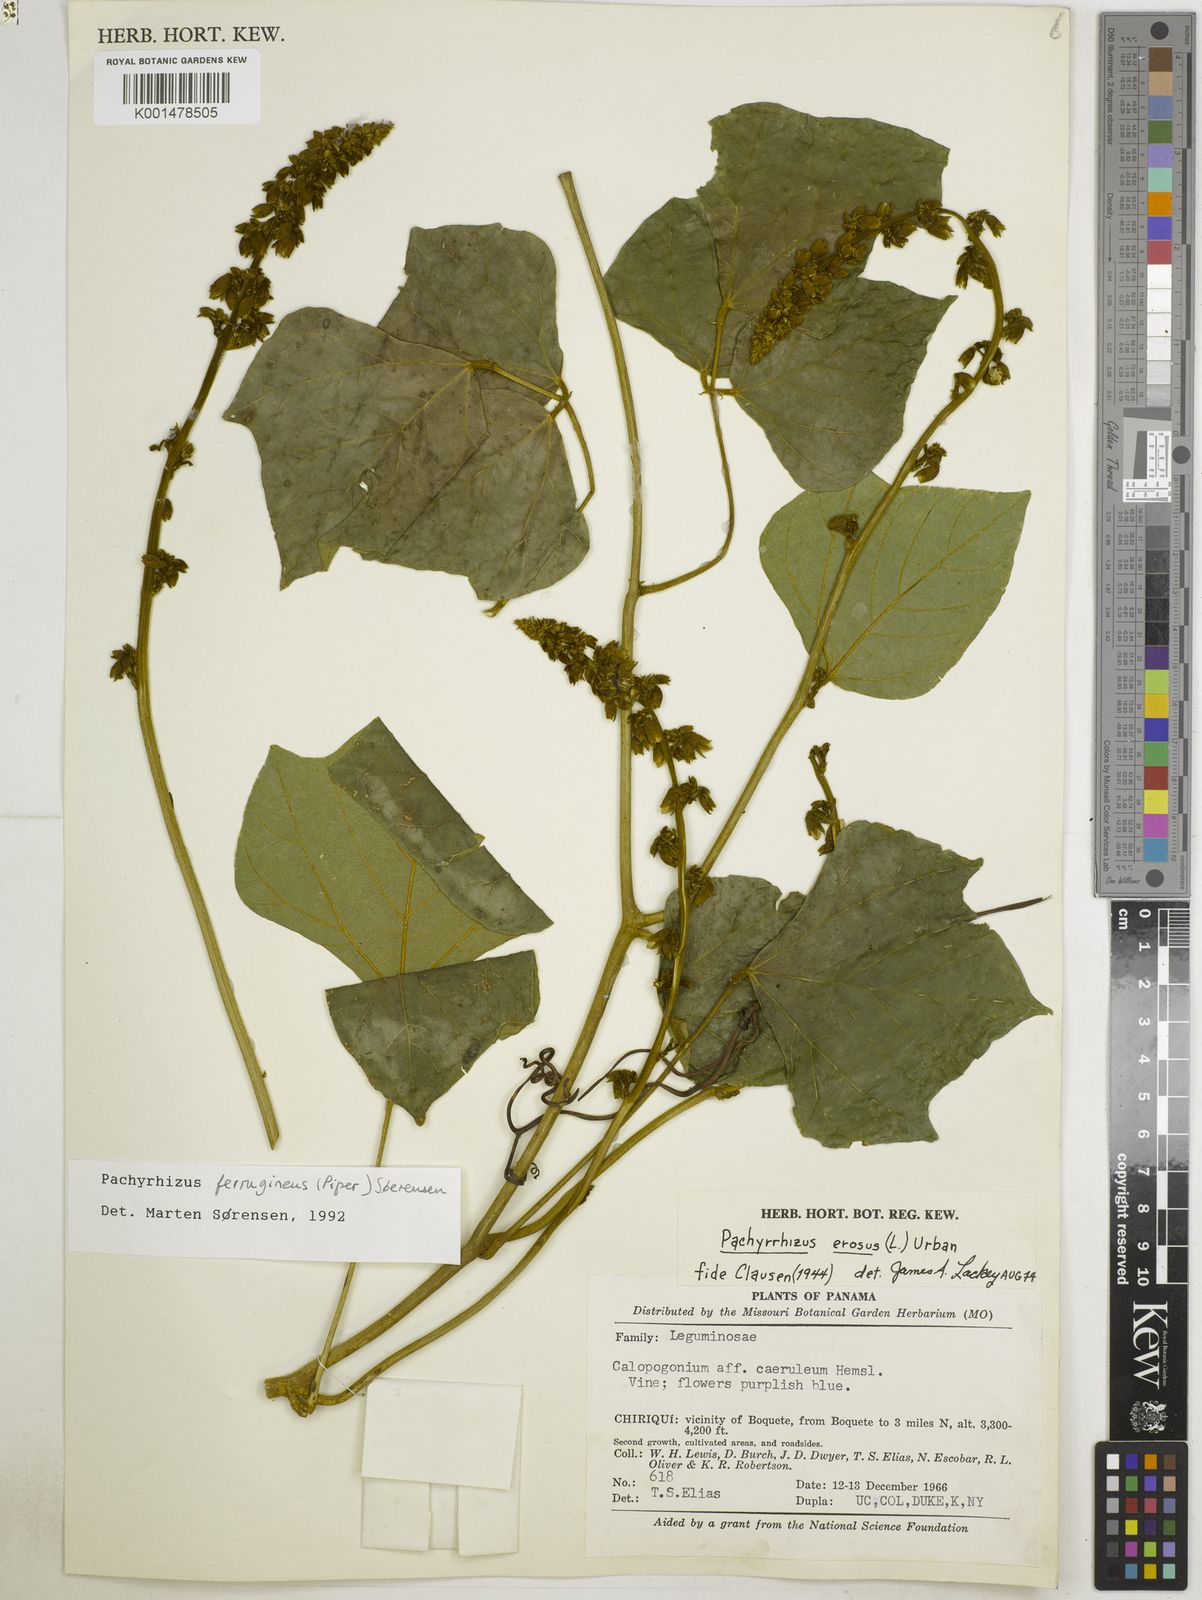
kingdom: Plantae
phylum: Tracheophyta
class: Magnoliopsida
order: Fabales
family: Fabaceae
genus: Pachyrhizus
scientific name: Pachyrhizus ferrugineus
